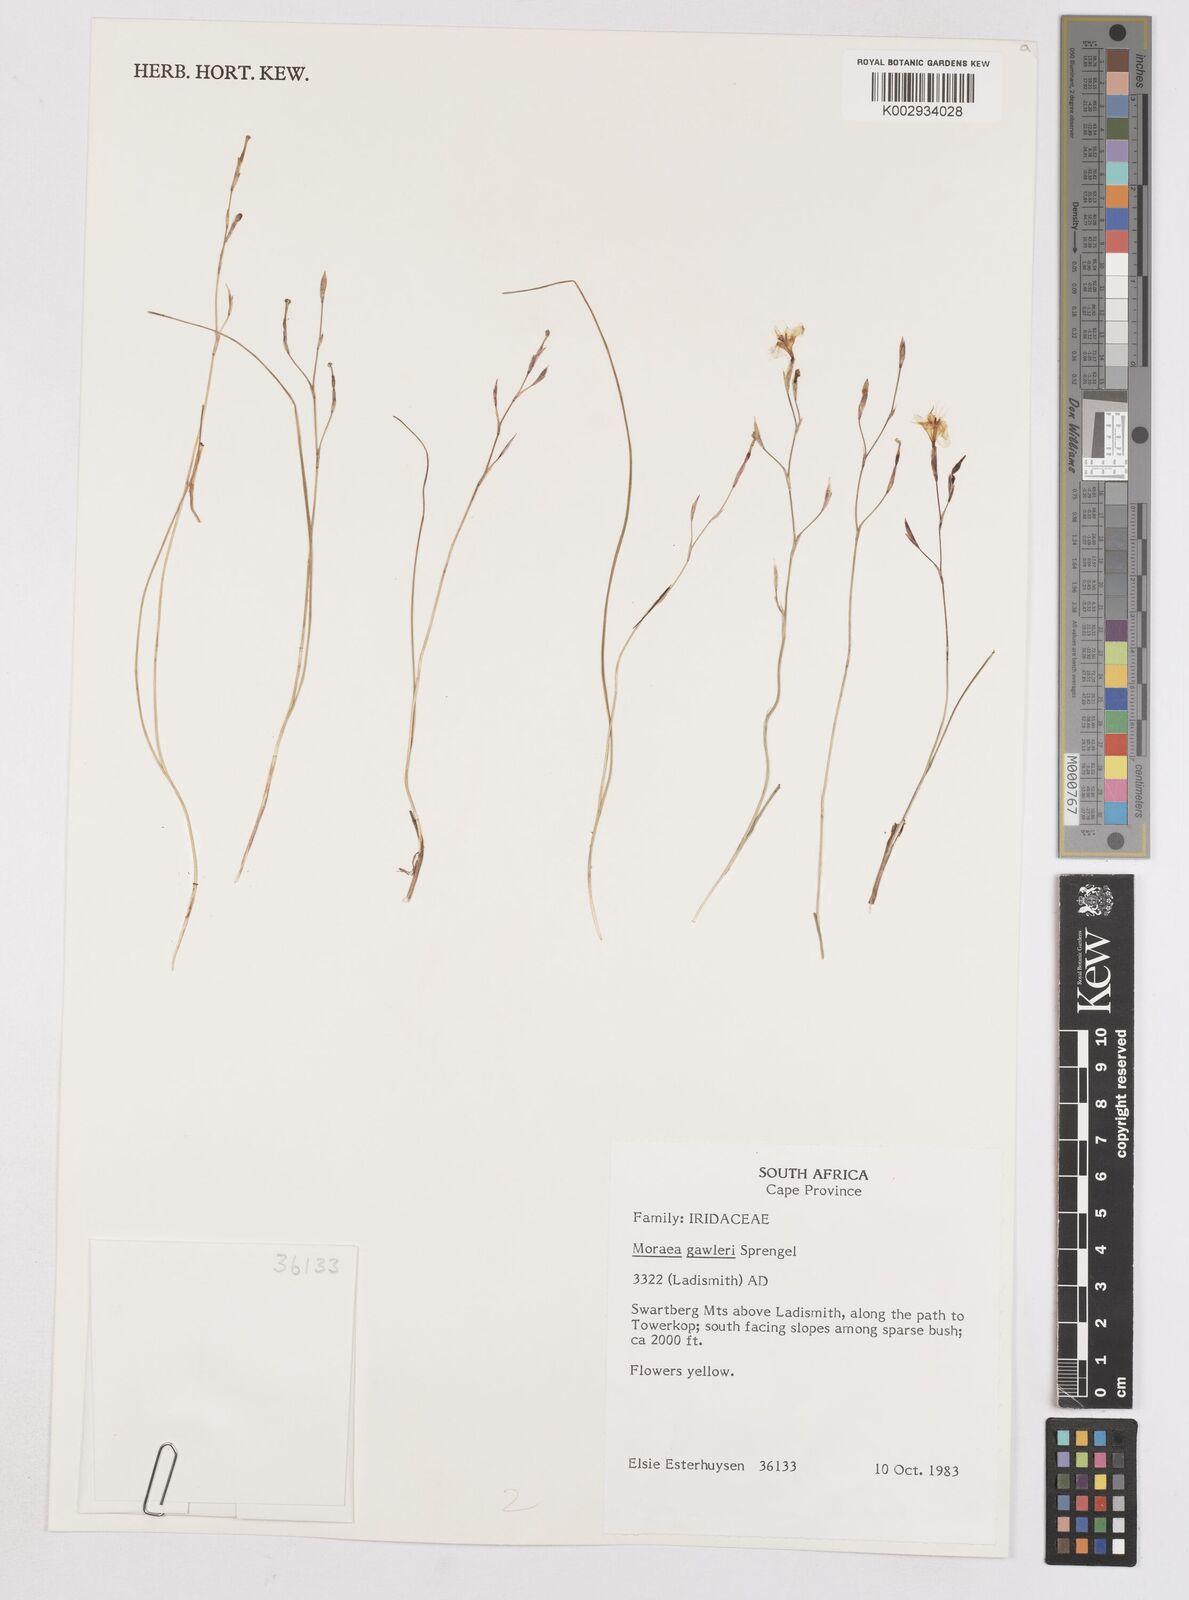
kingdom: Plantae
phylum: Tracheophyta
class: Liliopsida
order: Asparagales
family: Iridaceae
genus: Moraea
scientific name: Moraea gawleri
